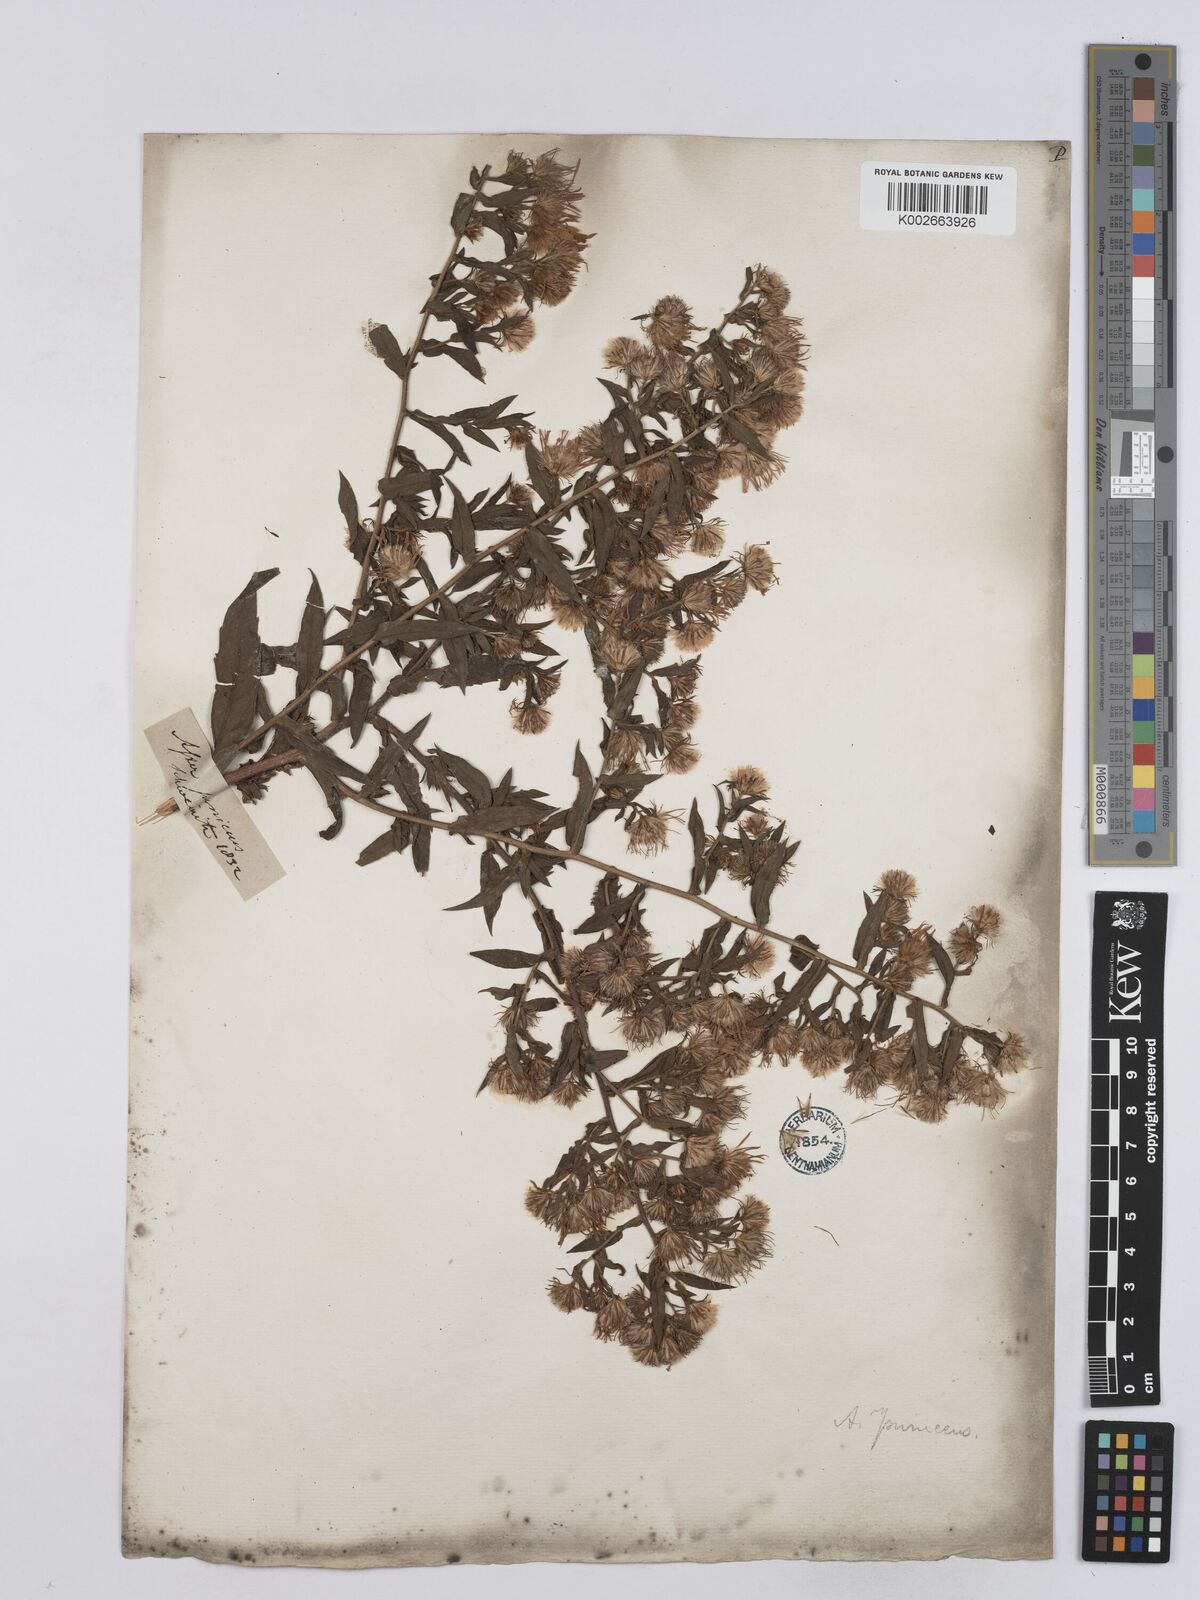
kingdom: Plantae
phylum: Tracheophyta
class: Magnoliopsida
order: Asterales
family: Asteraceae
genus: Symphyotrichum
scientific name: Symphyotrichum puniceum
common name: Bog aster
